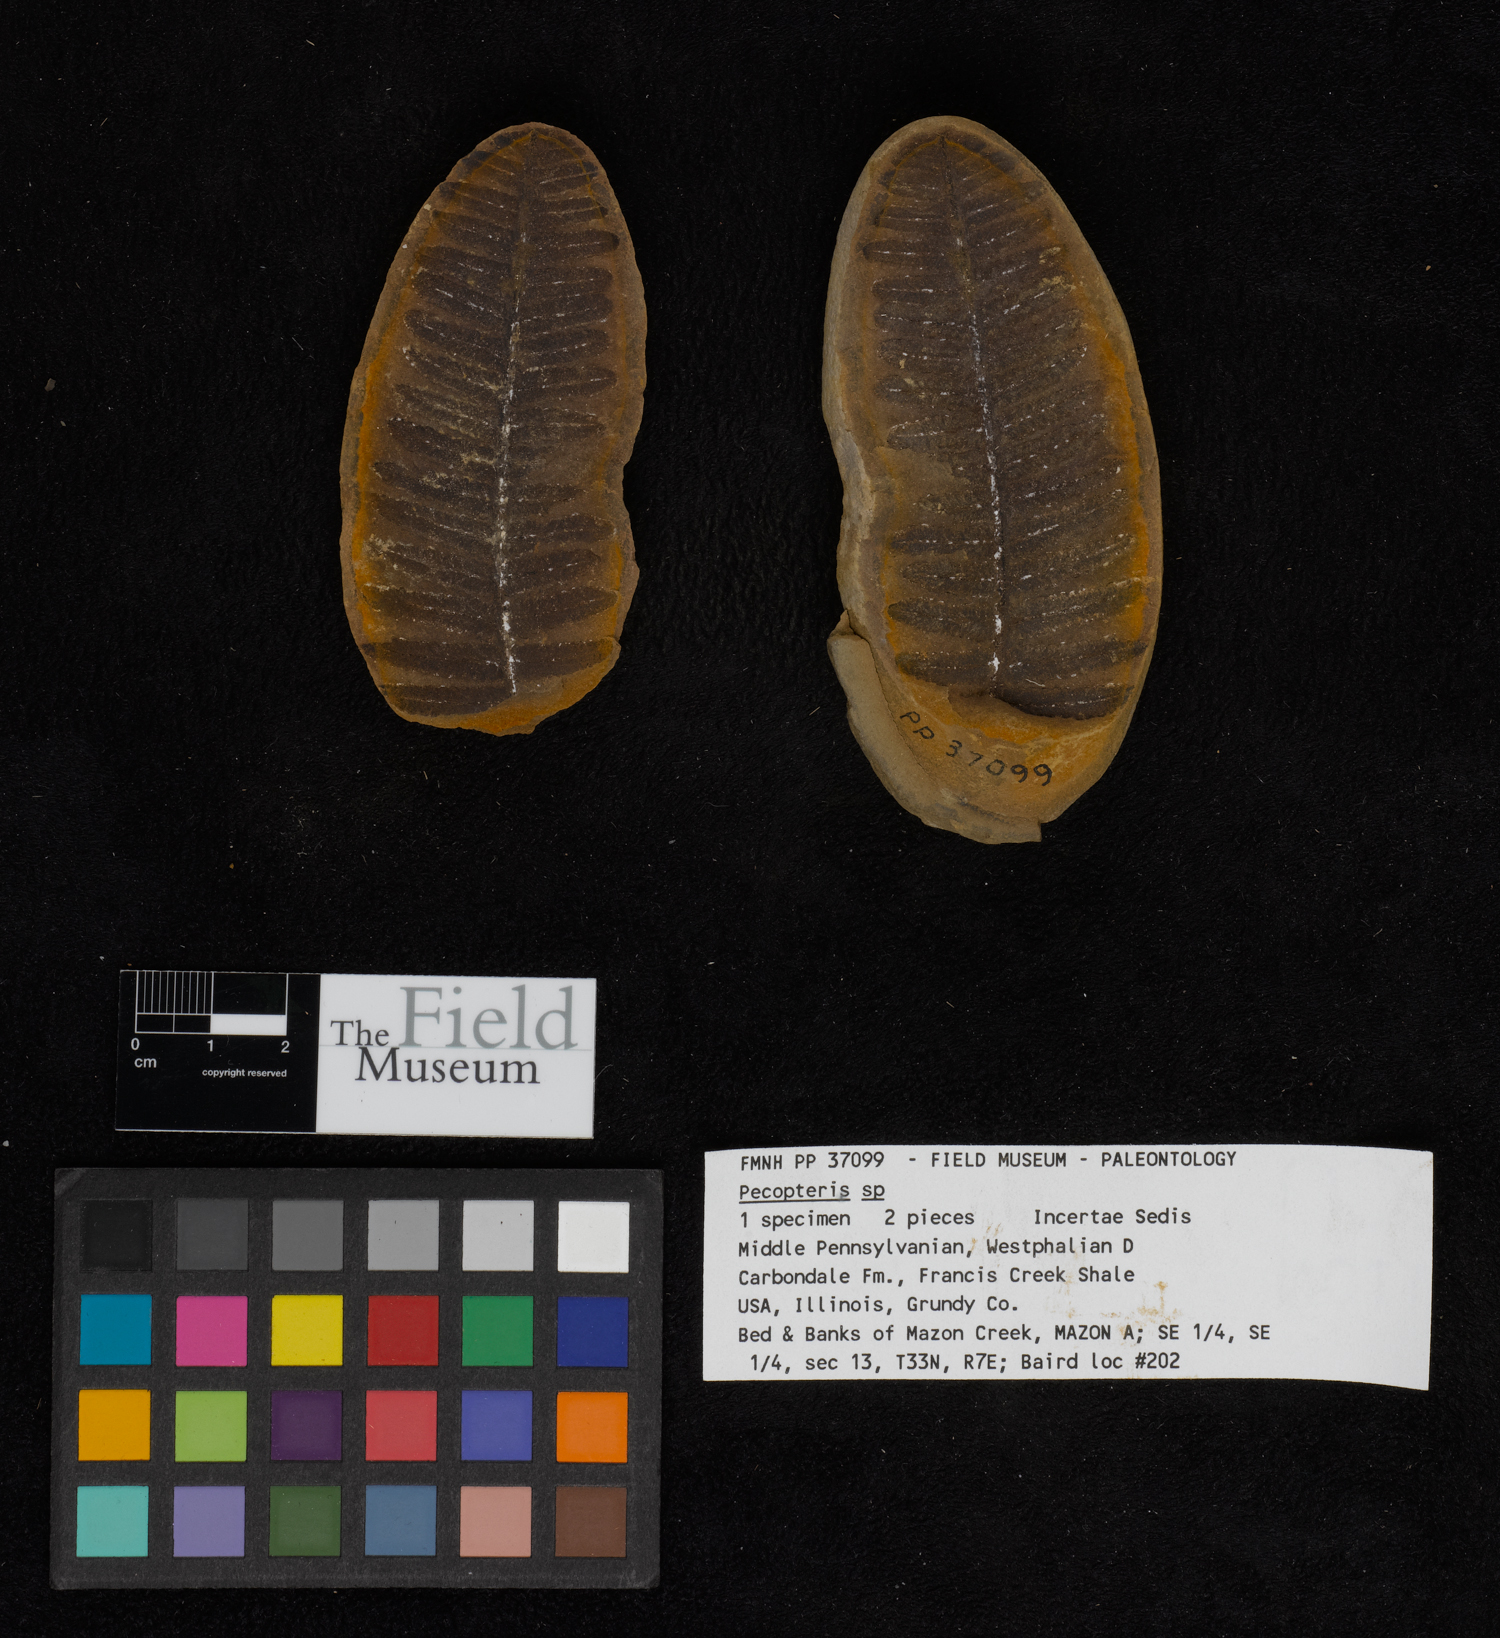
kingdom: Plantae
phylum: Tracheophyta
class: Polypodiopsida
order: Marattiales
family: Asterothecaceae
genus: Pecopteris
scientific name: Pecopteris
